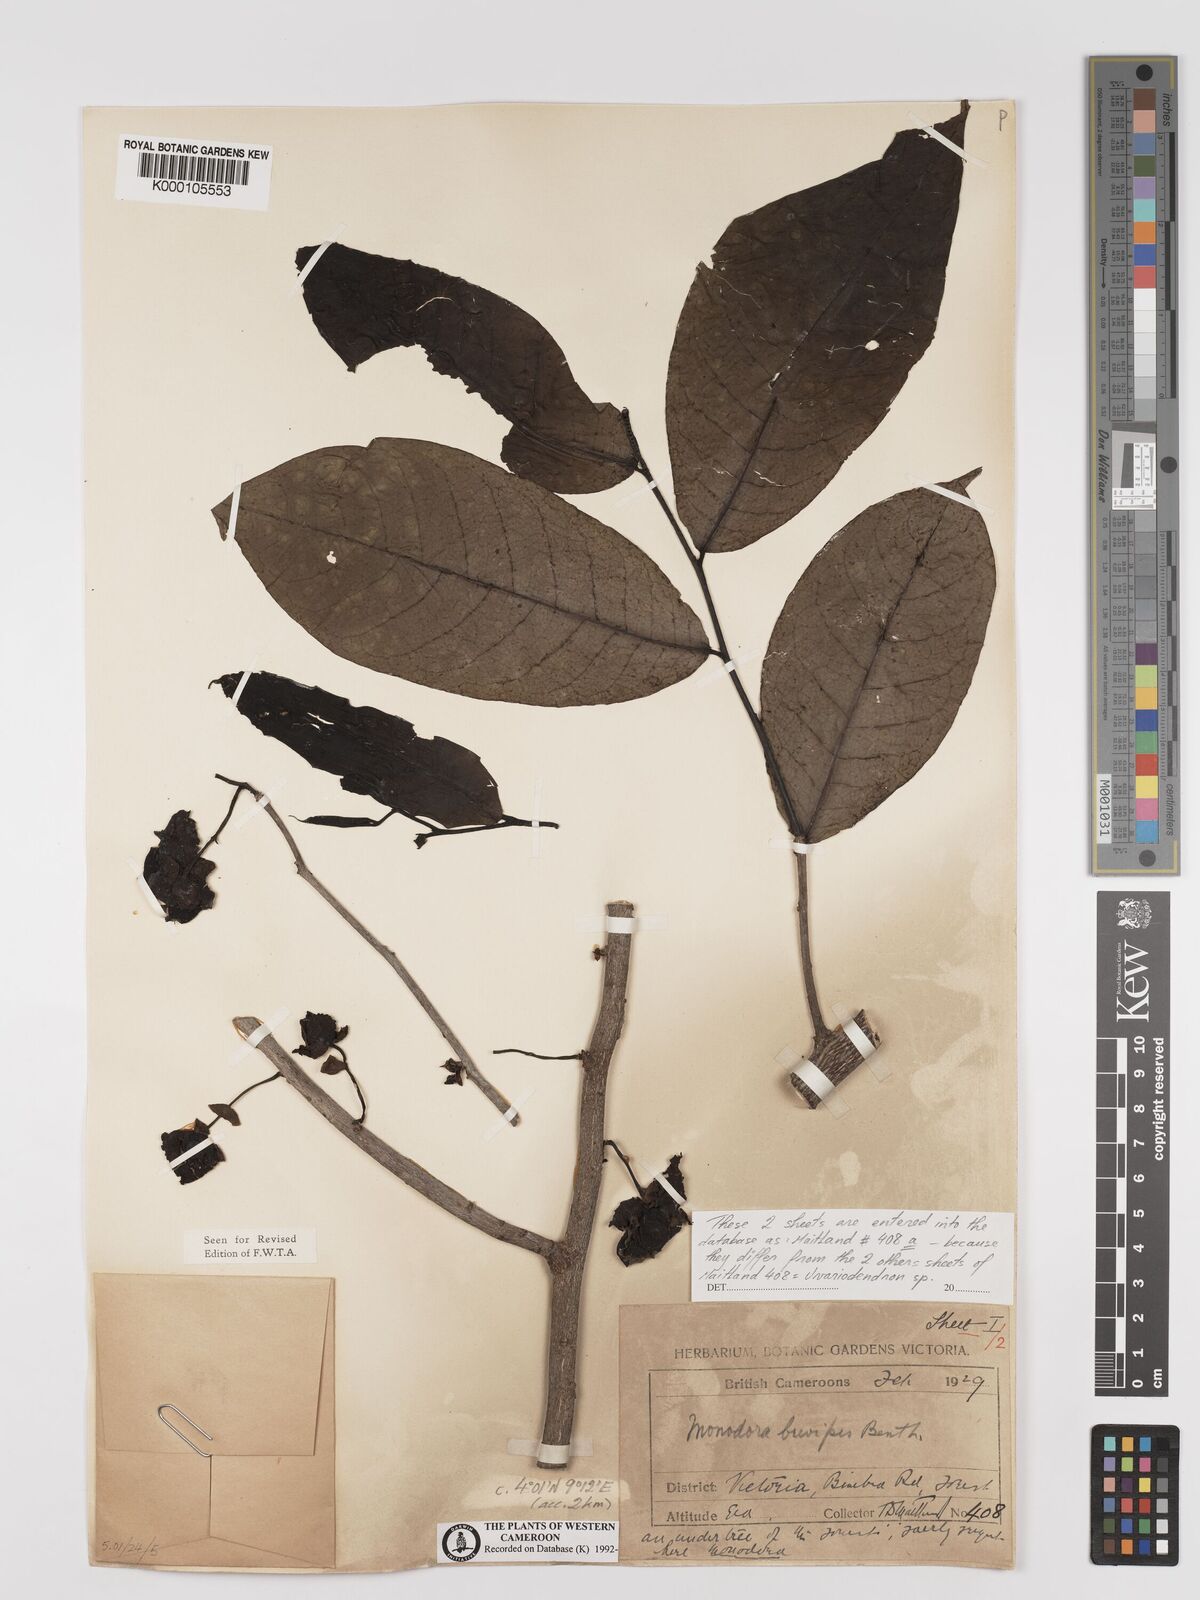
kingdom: Plantae
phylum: Tracheophyta
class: Magnoliopsida
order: Magnoliales
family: Annonaceae
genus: Monodora
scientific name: Monodora undulata
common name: Yellow-flower-nutmeg
